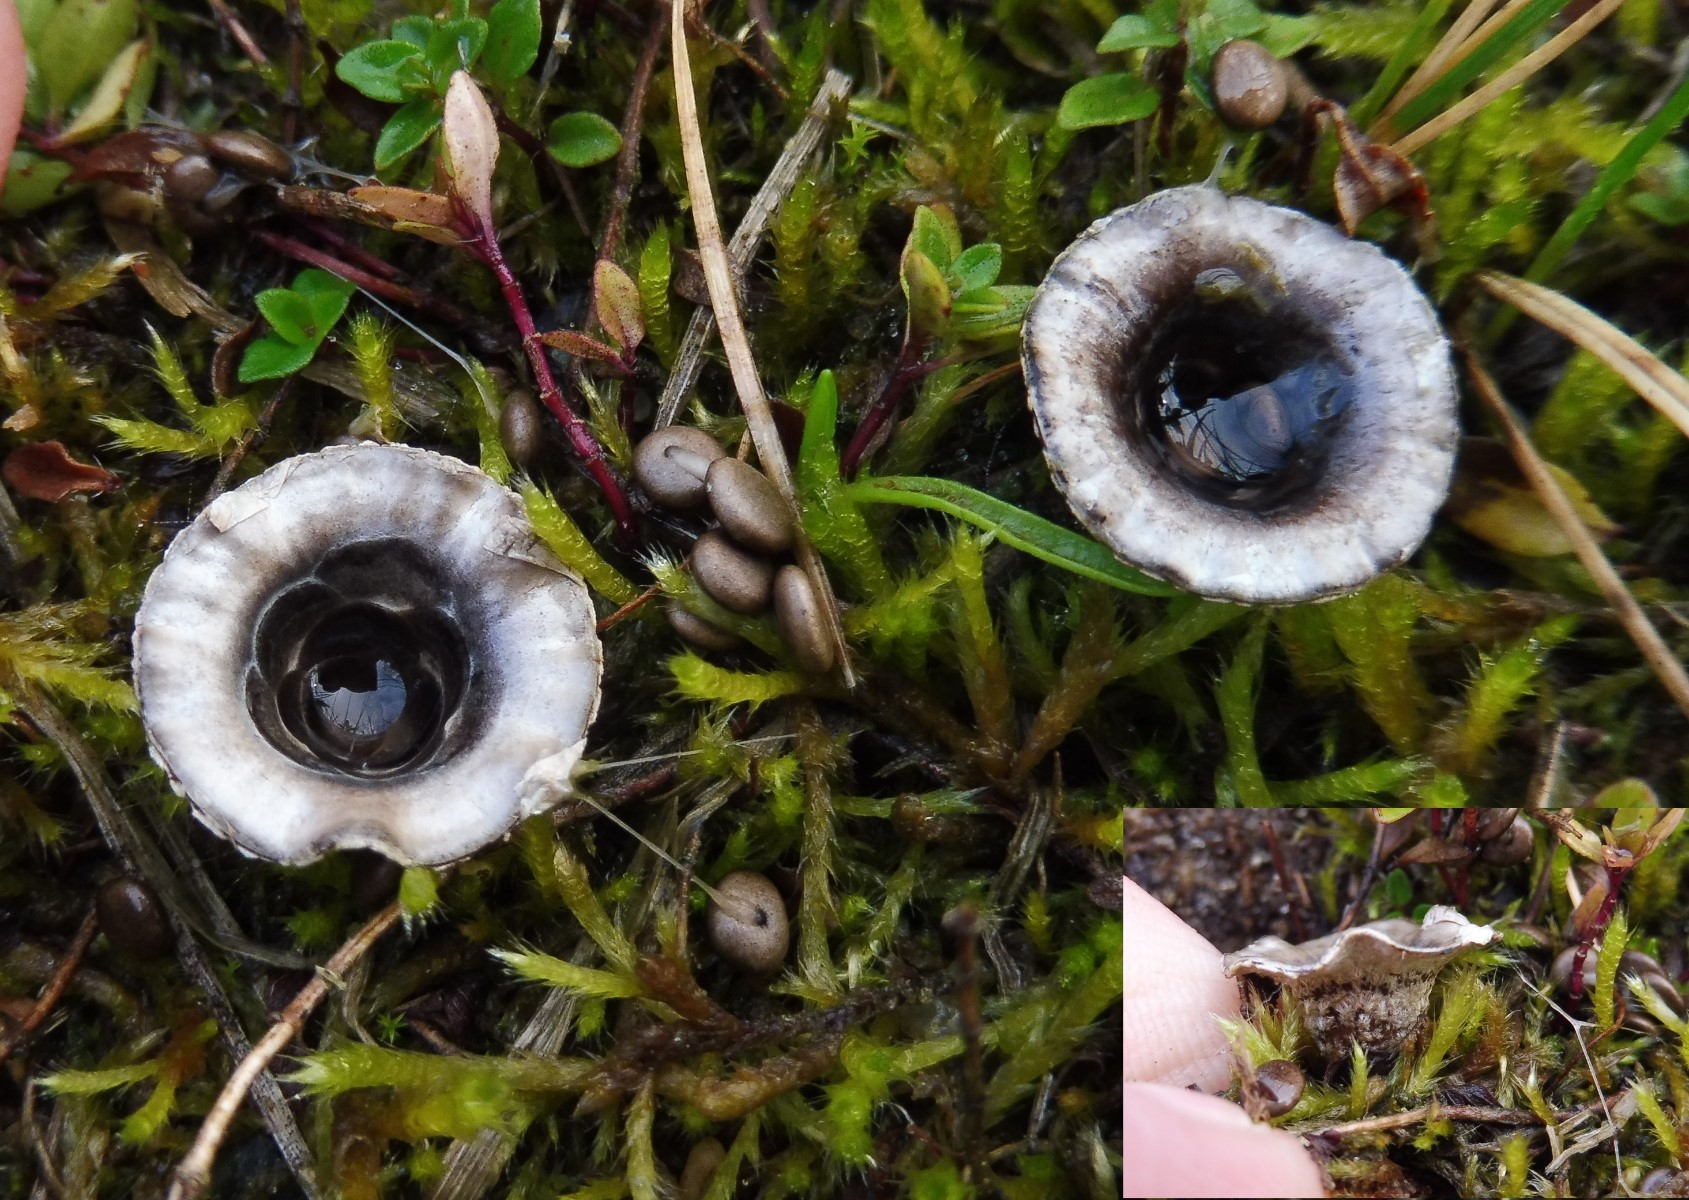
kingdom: Fungi
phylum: Basidiomycota
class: Agaricomycetes
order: Agaricales
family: Agaricaceae
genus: Cyathus
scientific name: Cyathus olla
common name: klokke-redesvamp
